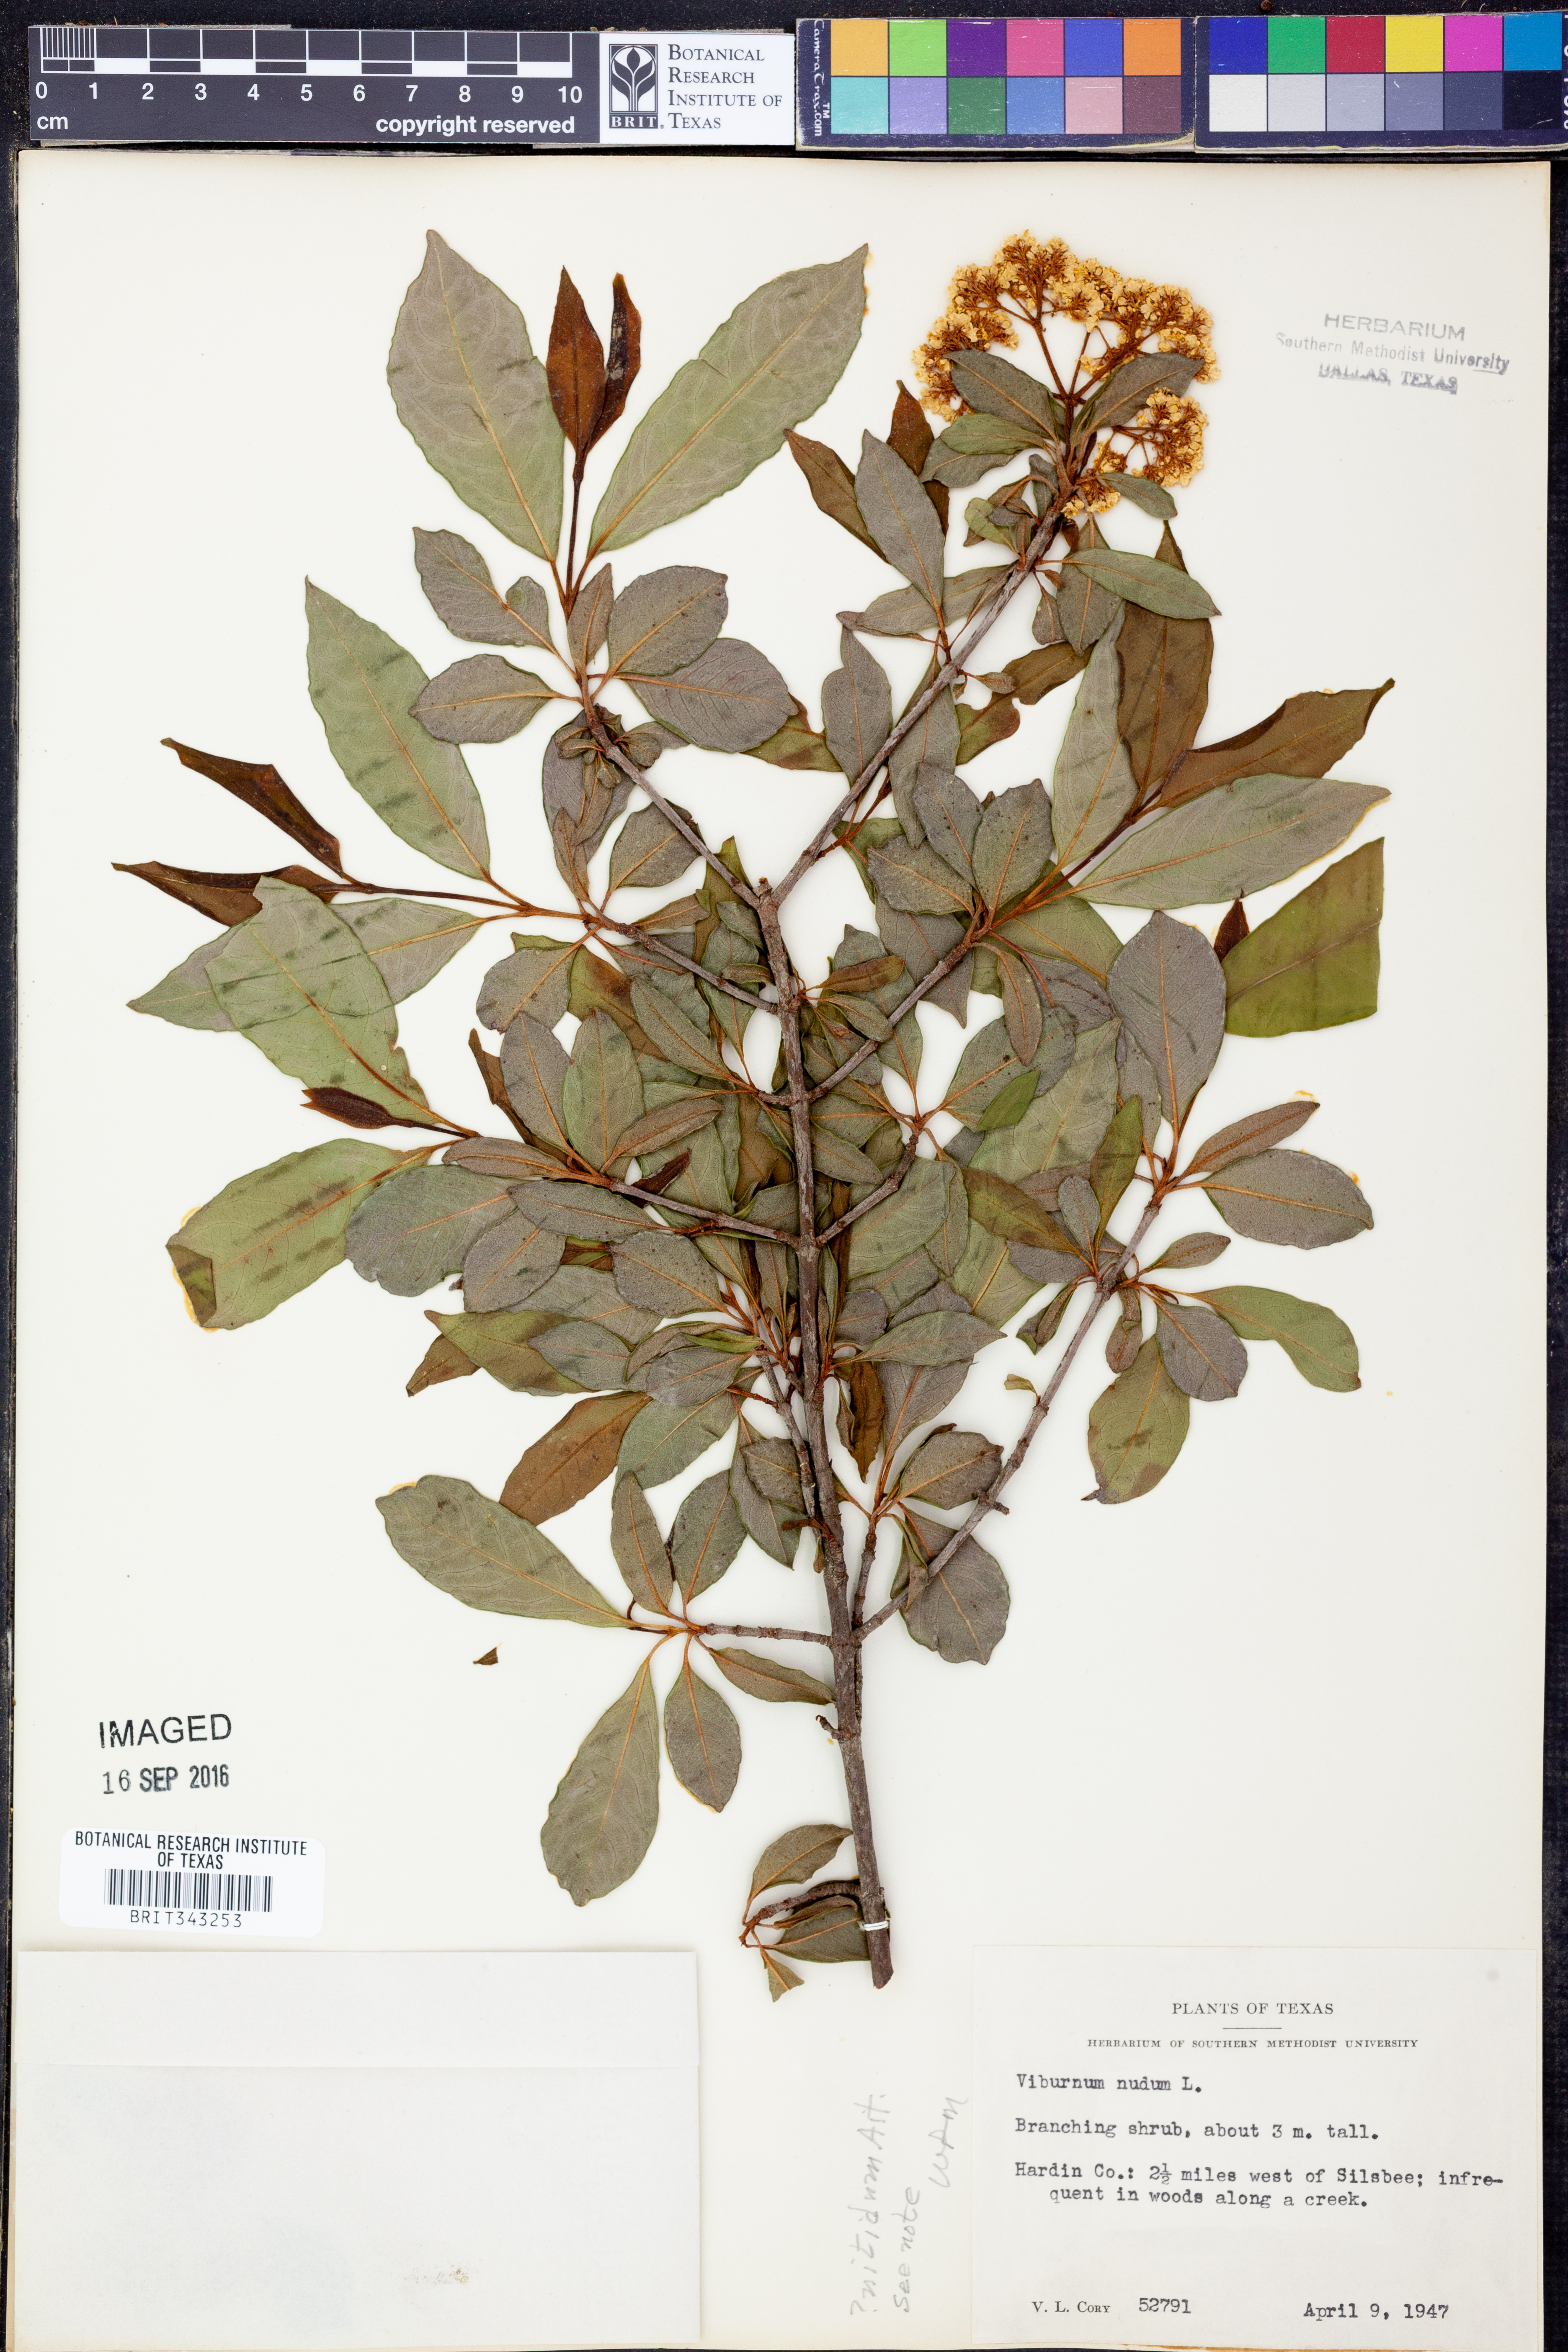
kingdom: Plantae
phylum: Tracheophyta
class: Magnoliopsida
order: Dipsacales
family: Viburnaceae
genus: Viburnum
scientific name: Viburnum nudum
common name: Possum haw
